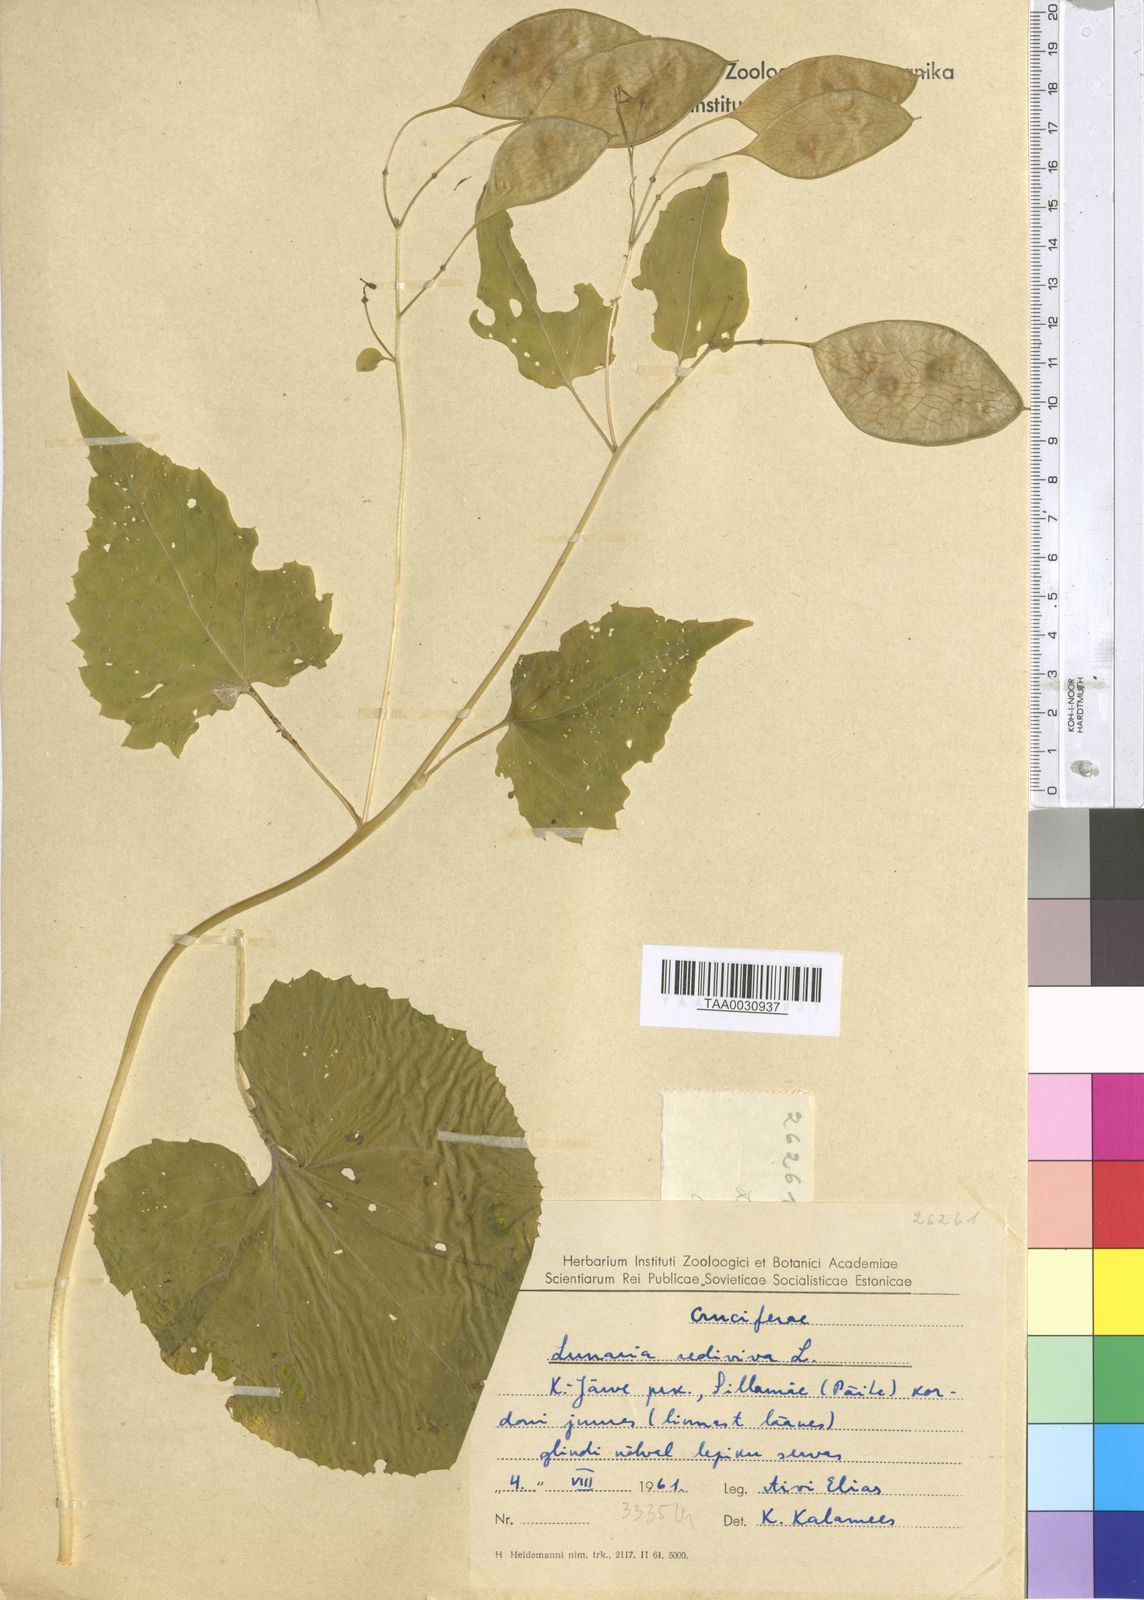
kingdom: Plantae
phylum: Tracheophyta
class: Magnoliopsida
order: Brassicales
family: Brassicaceae
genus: Lunaria
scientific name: Lunaria rediviva
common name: Perennial honesty
